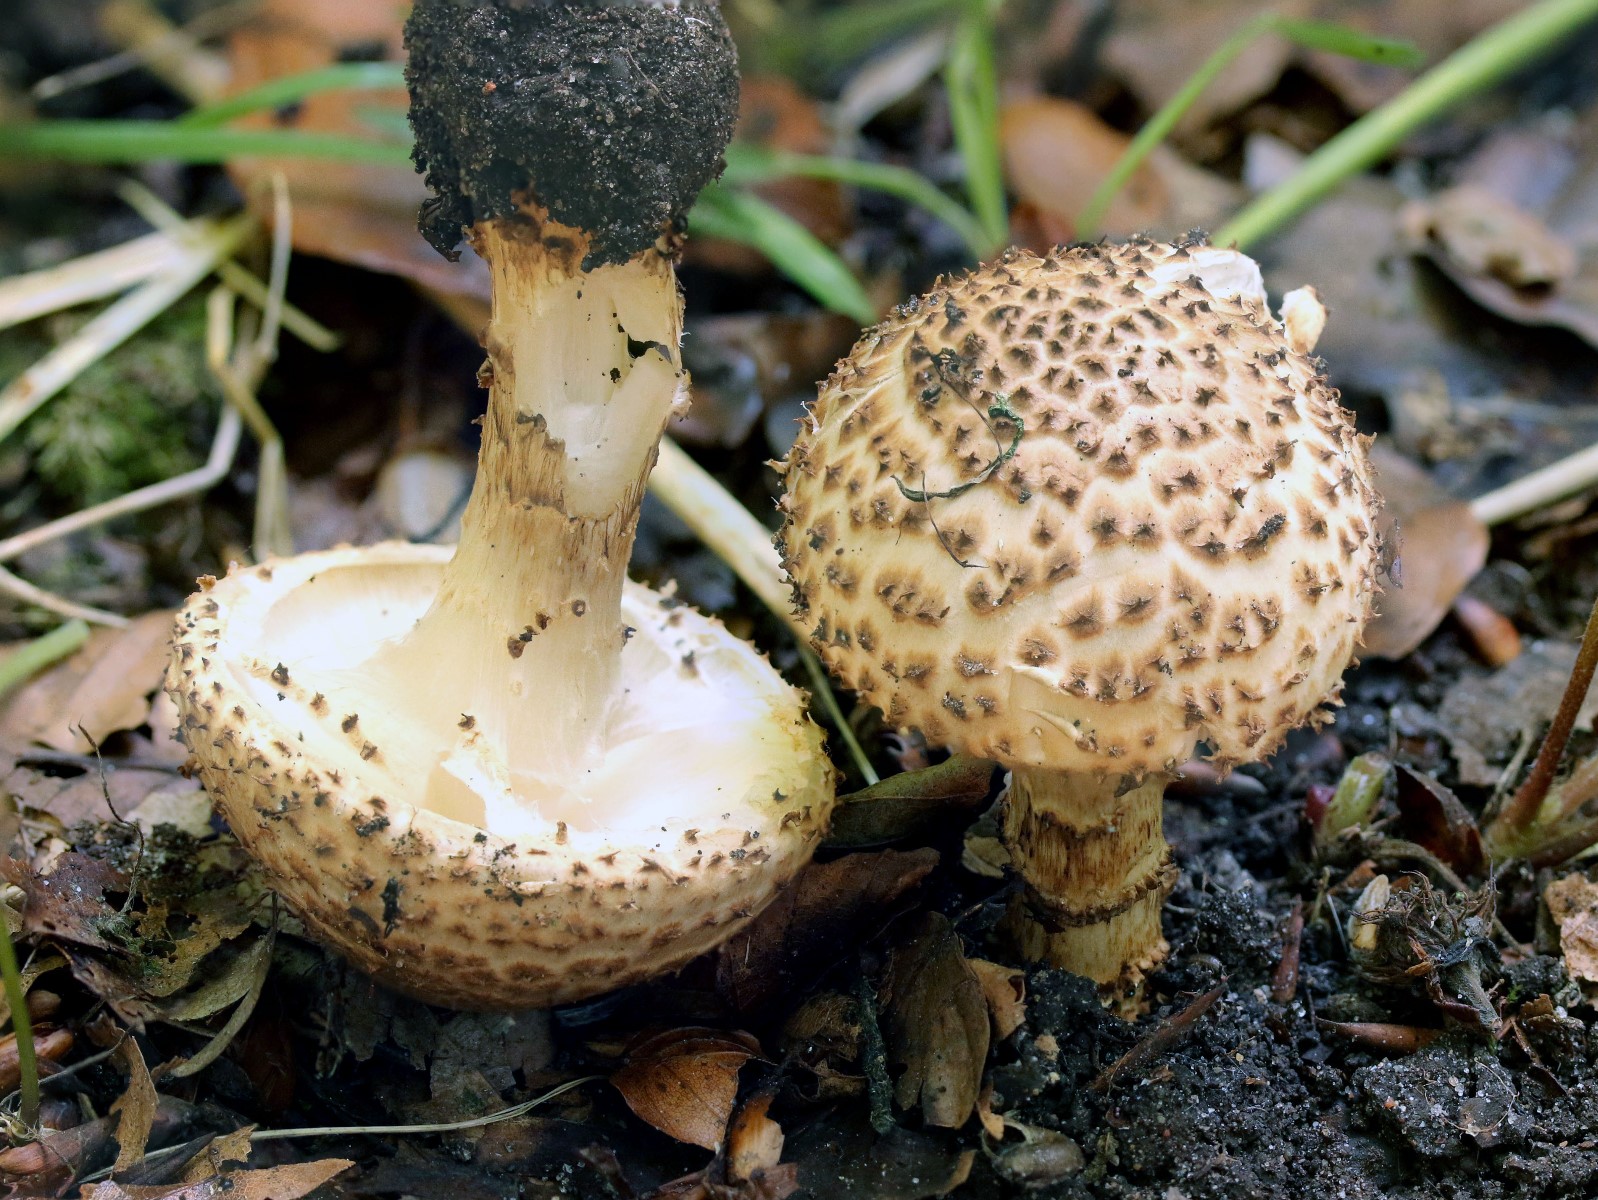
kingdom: Fungi
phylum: Basidiomycota
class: Agaricomycetes
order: Agaricales
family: Agaricaceae
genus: Echinoderma
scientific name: Echinoderma asperum
